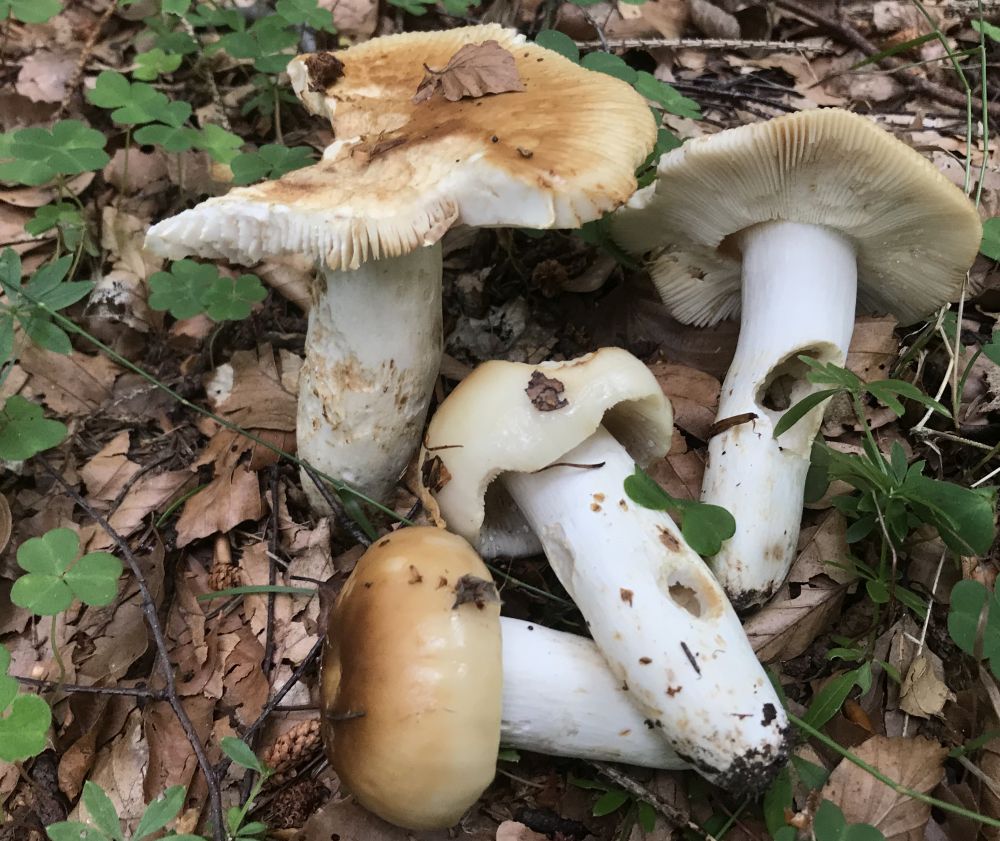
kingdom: Fungi
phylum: Basidiomycota
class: Agaricomycetes
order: Russulales
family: Russulaceae
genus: Russula
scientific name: Russula
